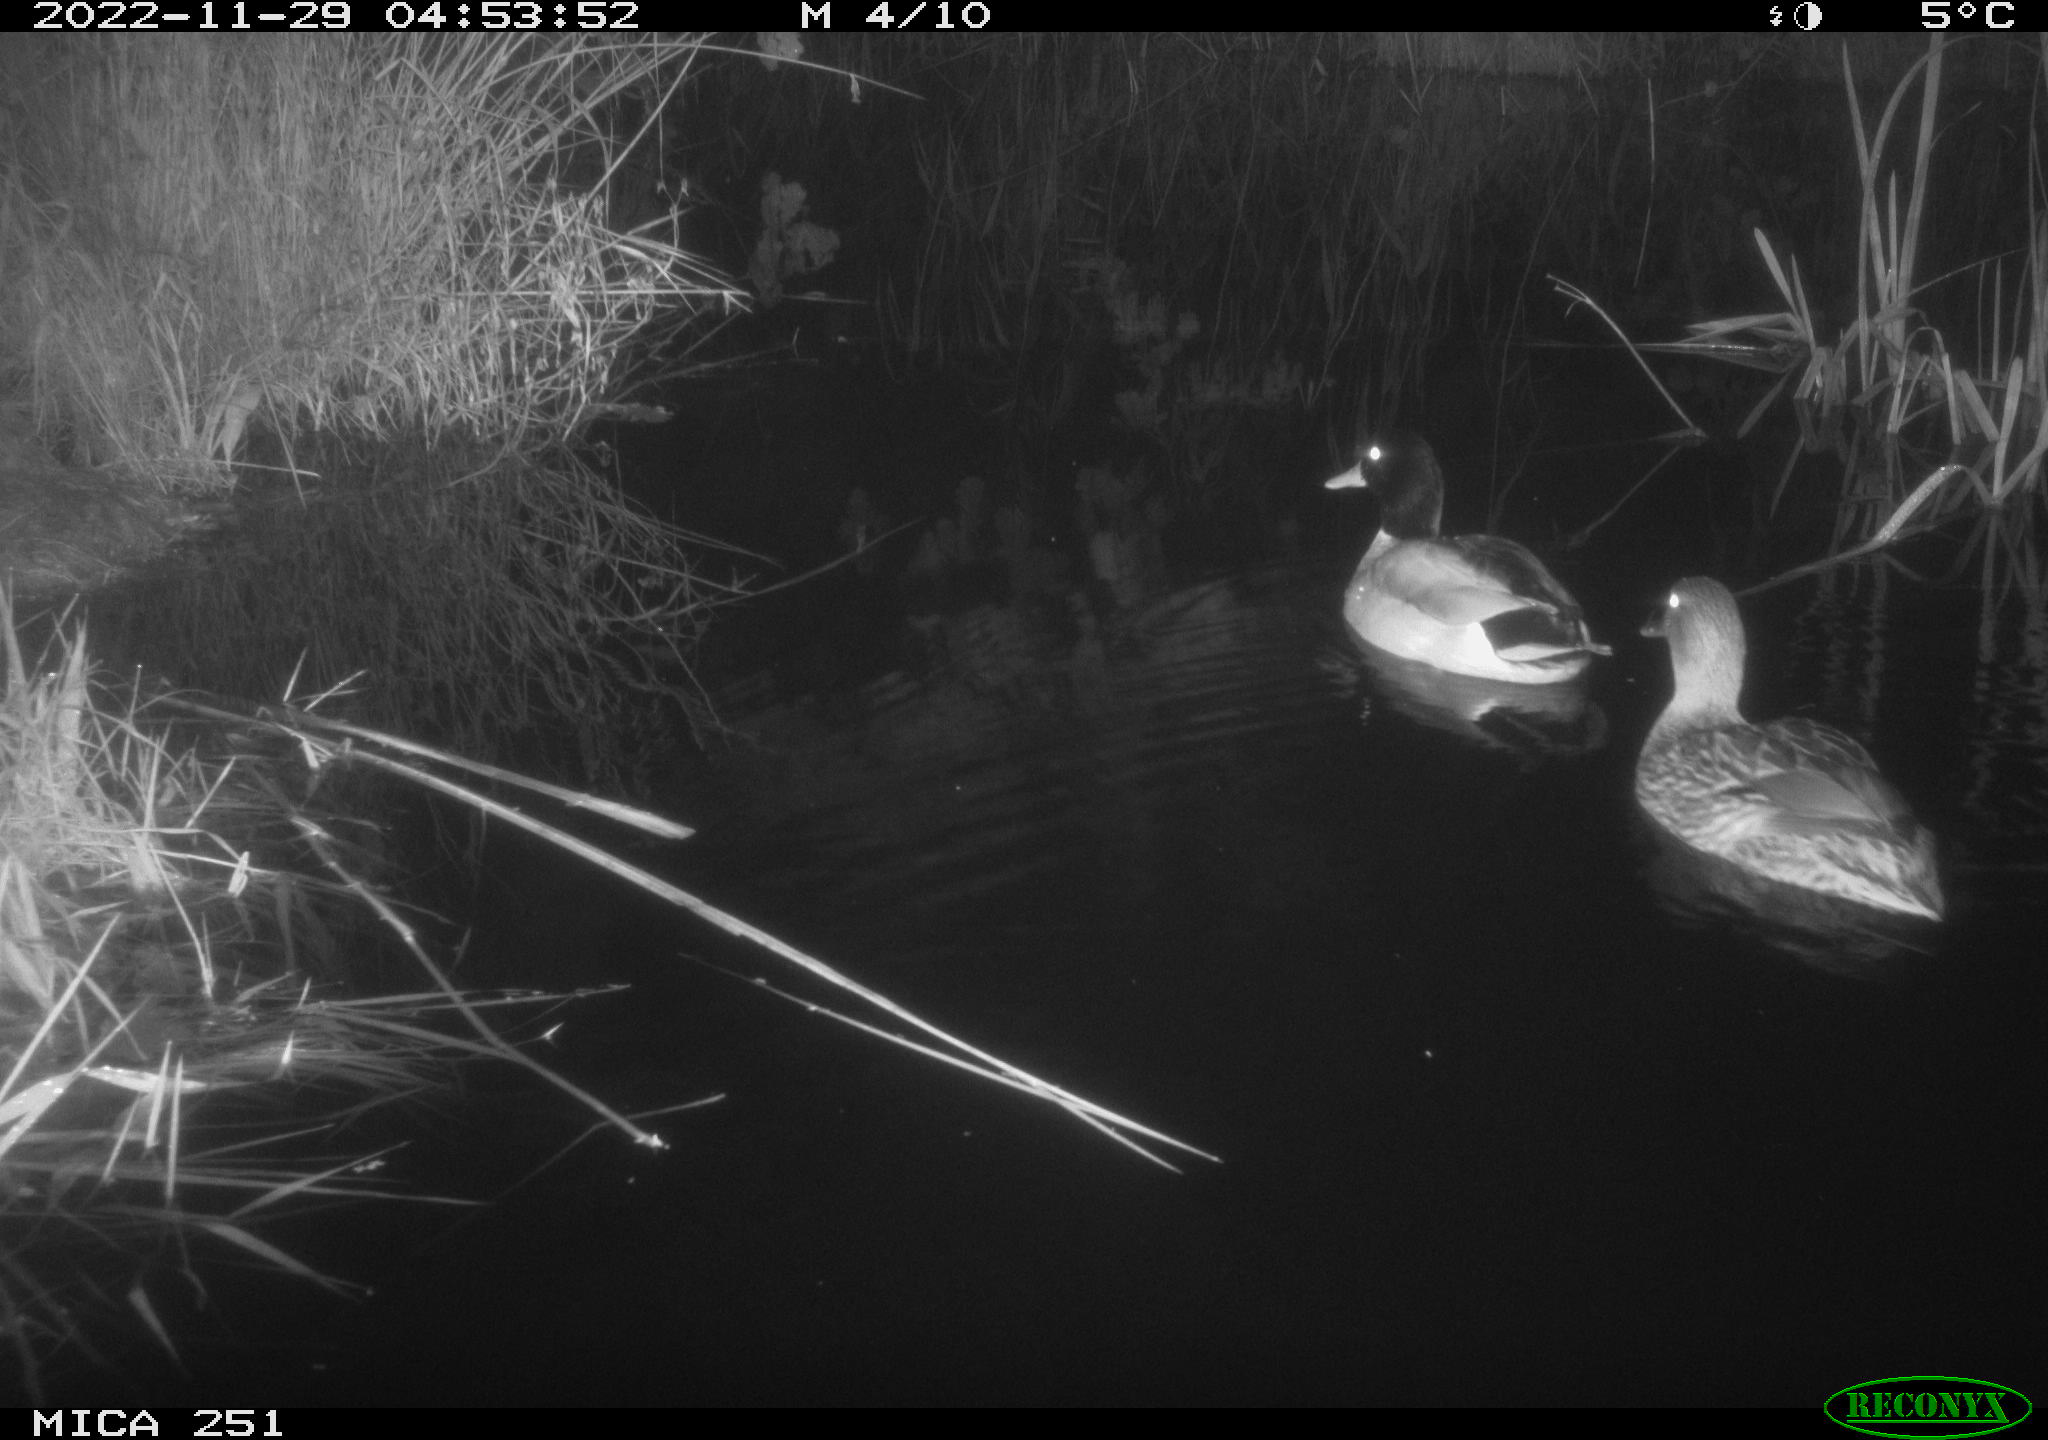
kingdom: Animalia
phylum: Chordata
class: Aves
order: Anseriformes
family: Anatidae
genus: Anas
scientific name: Anas
